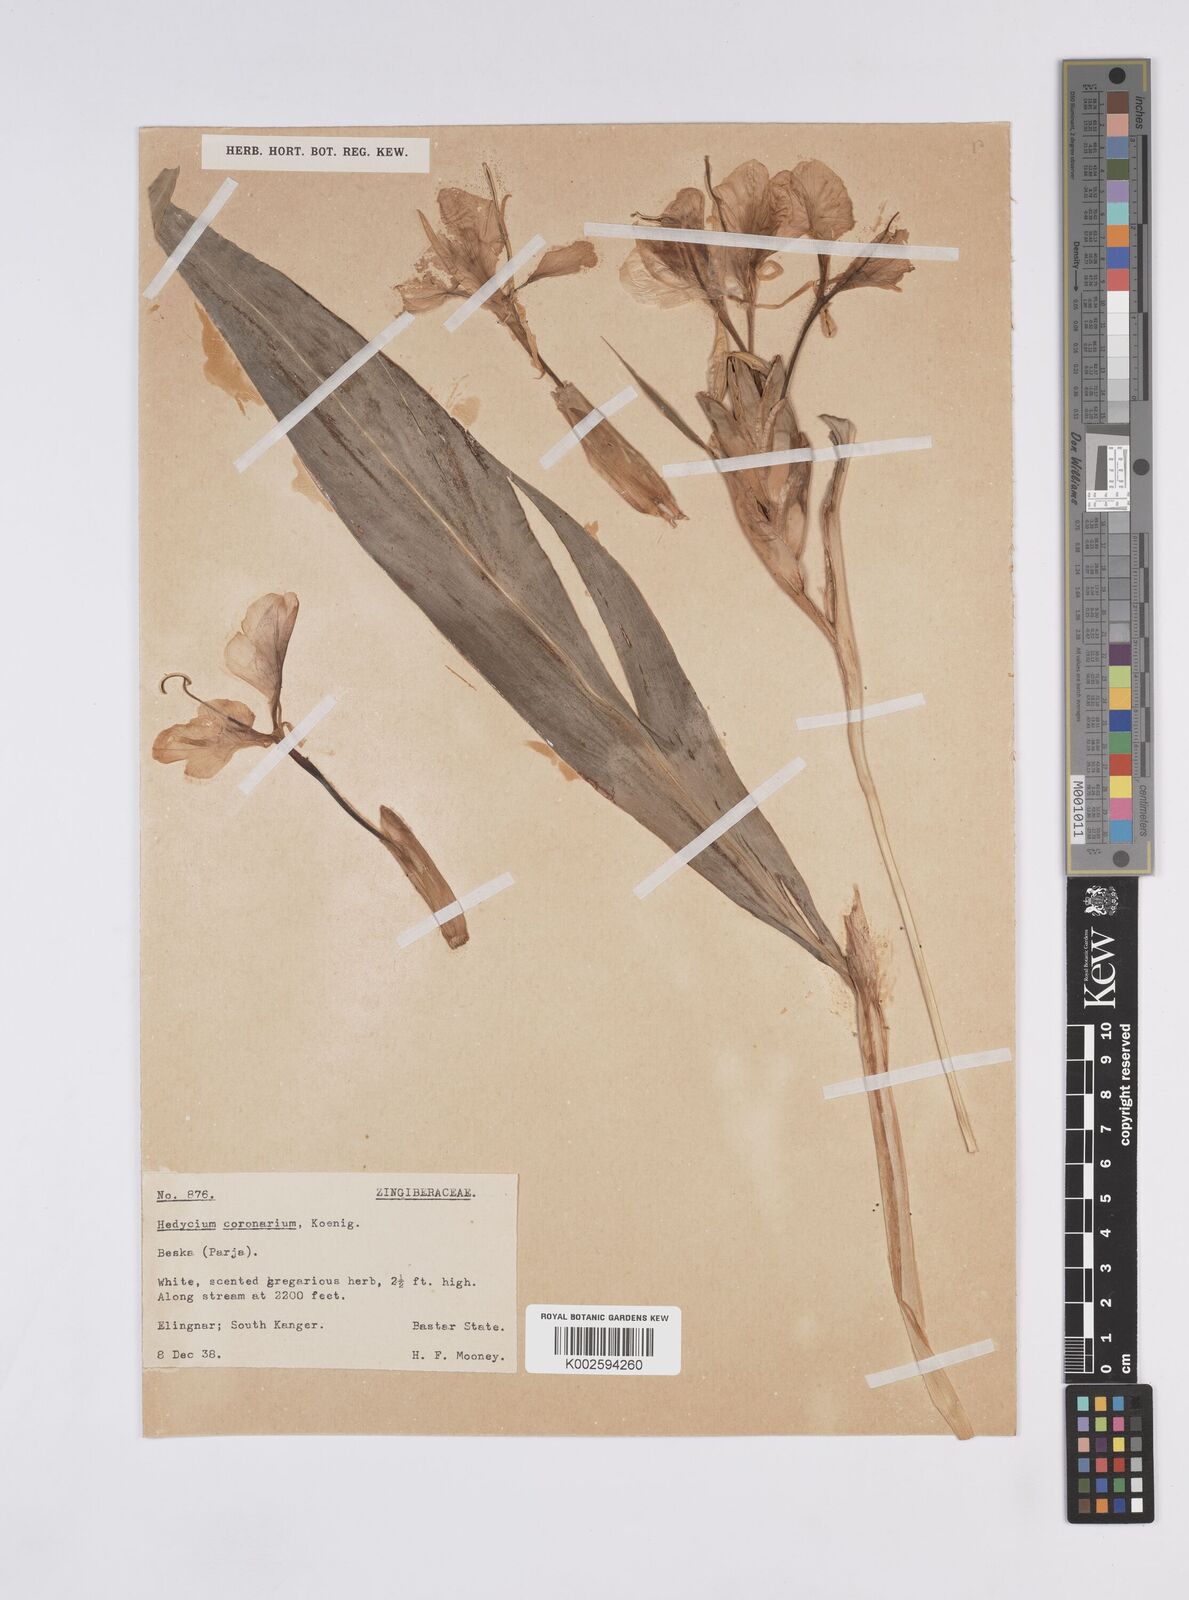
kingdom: Plantae
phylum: Tracheophyta
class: Liliopsida
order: Zingiberales
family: Zingiberaceae
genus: Hedychium
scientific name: Hedychium coronarium
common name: White garland-lily
